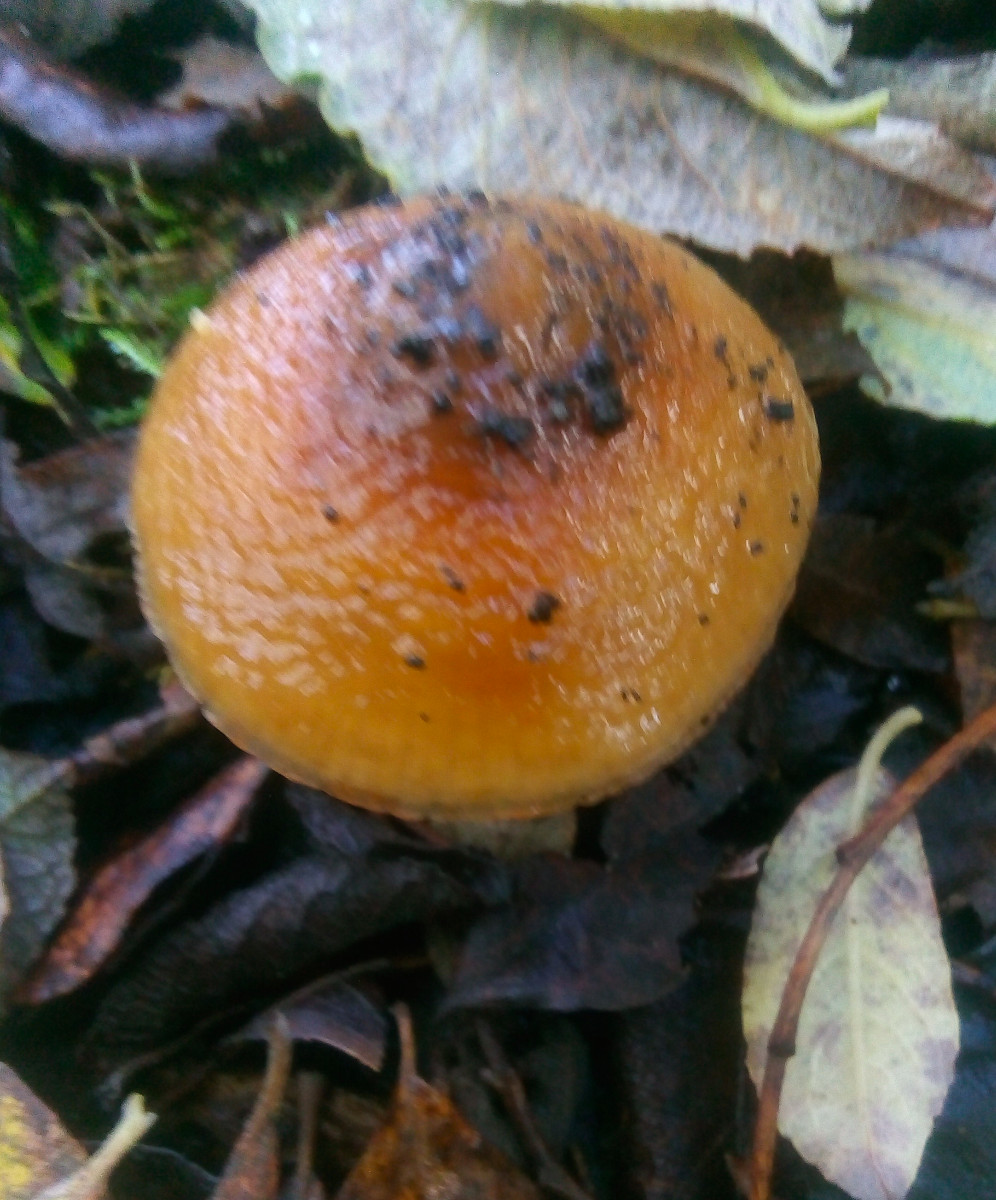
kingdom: Fungi
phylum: Basidiomycota
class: Agaricomycetes
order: Agaricales
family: Cortinariaceae
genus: Cortinarius
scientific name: Cortinarius trivialis
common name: Girdled webcap
